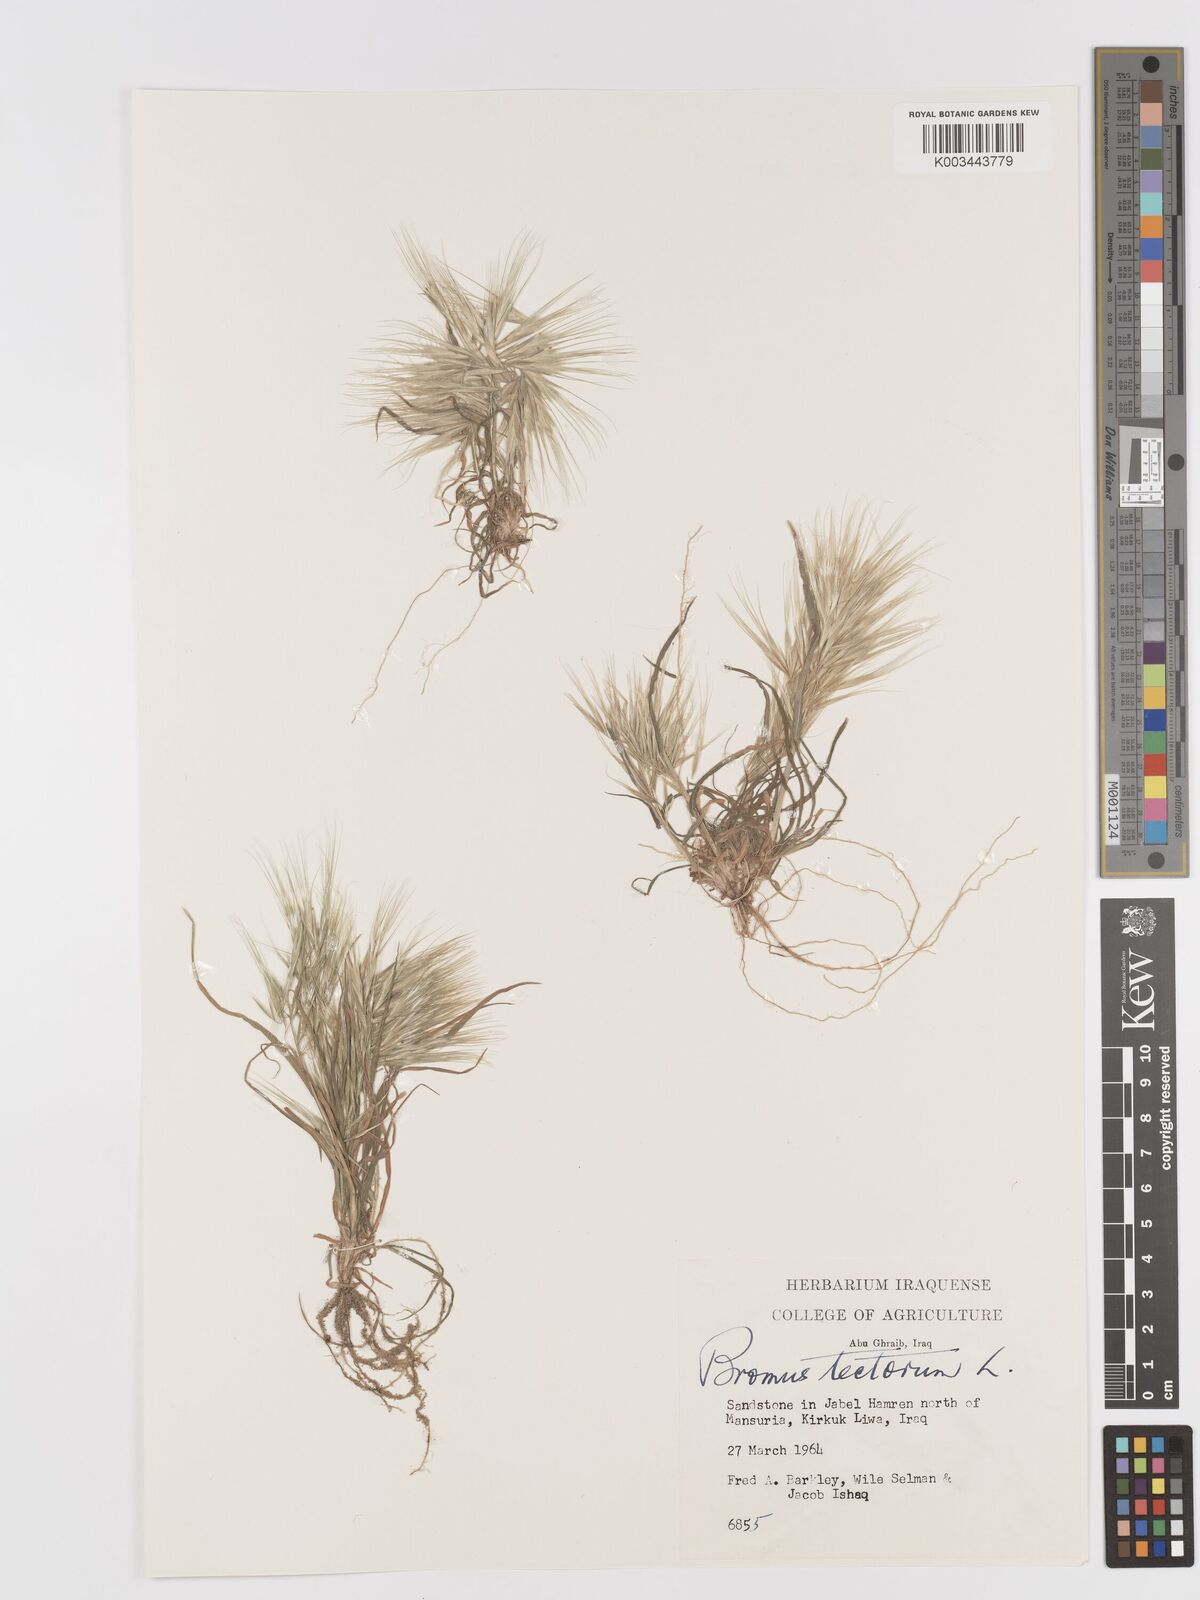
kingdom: Plantae
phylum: Tracheophyta
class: Liliopsida
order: Poales
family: Poaceae
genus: Bromus
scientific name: Bromus tectorum
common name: Cheatgrass
